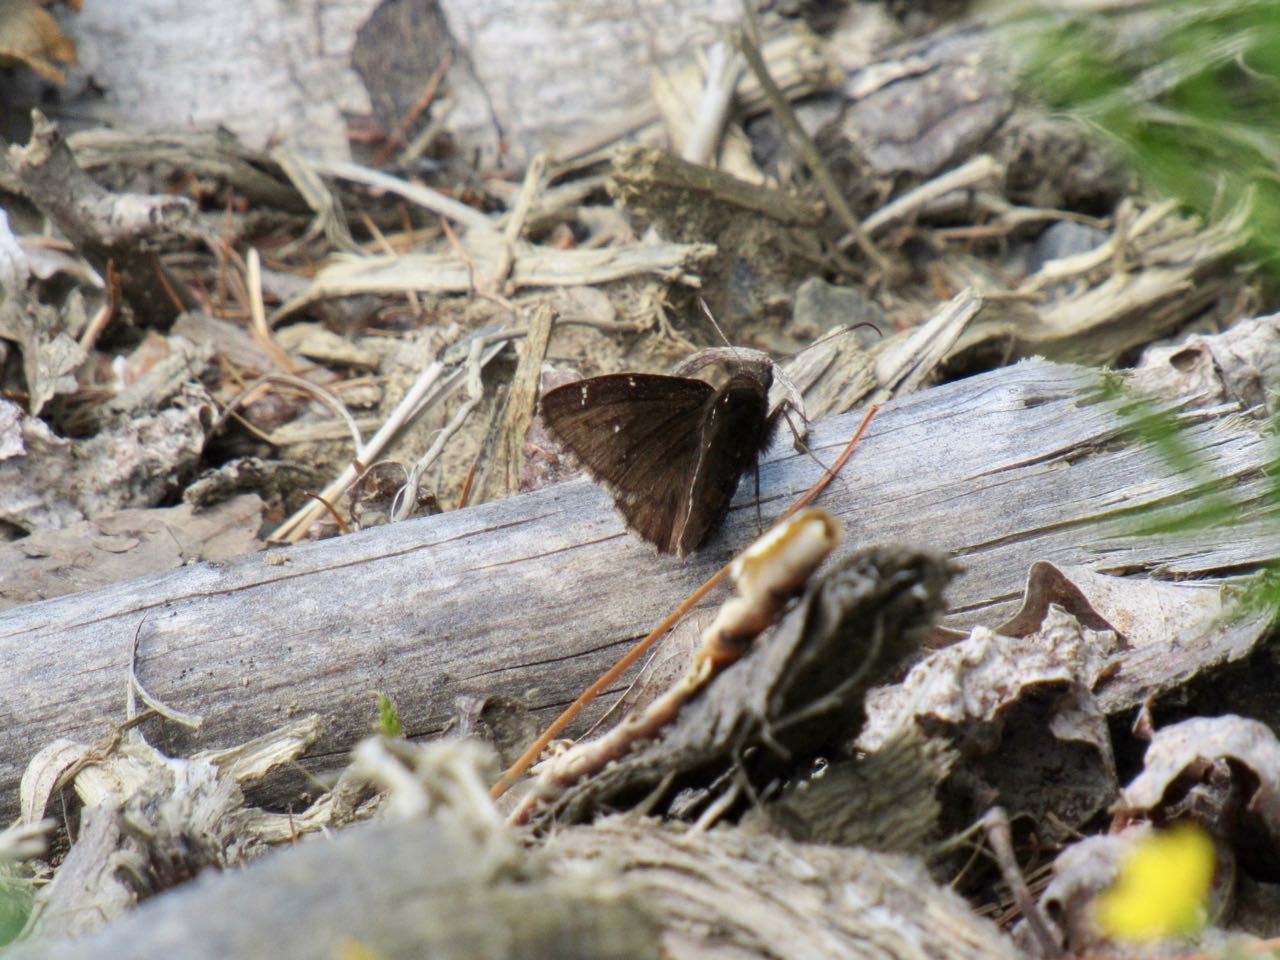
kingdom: Animalia
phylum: Arthropoda
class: Insecta
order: Lepidoptera
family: Hesperiidae
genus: Autochton
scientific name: Autochton
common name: Northern Cloudywing
